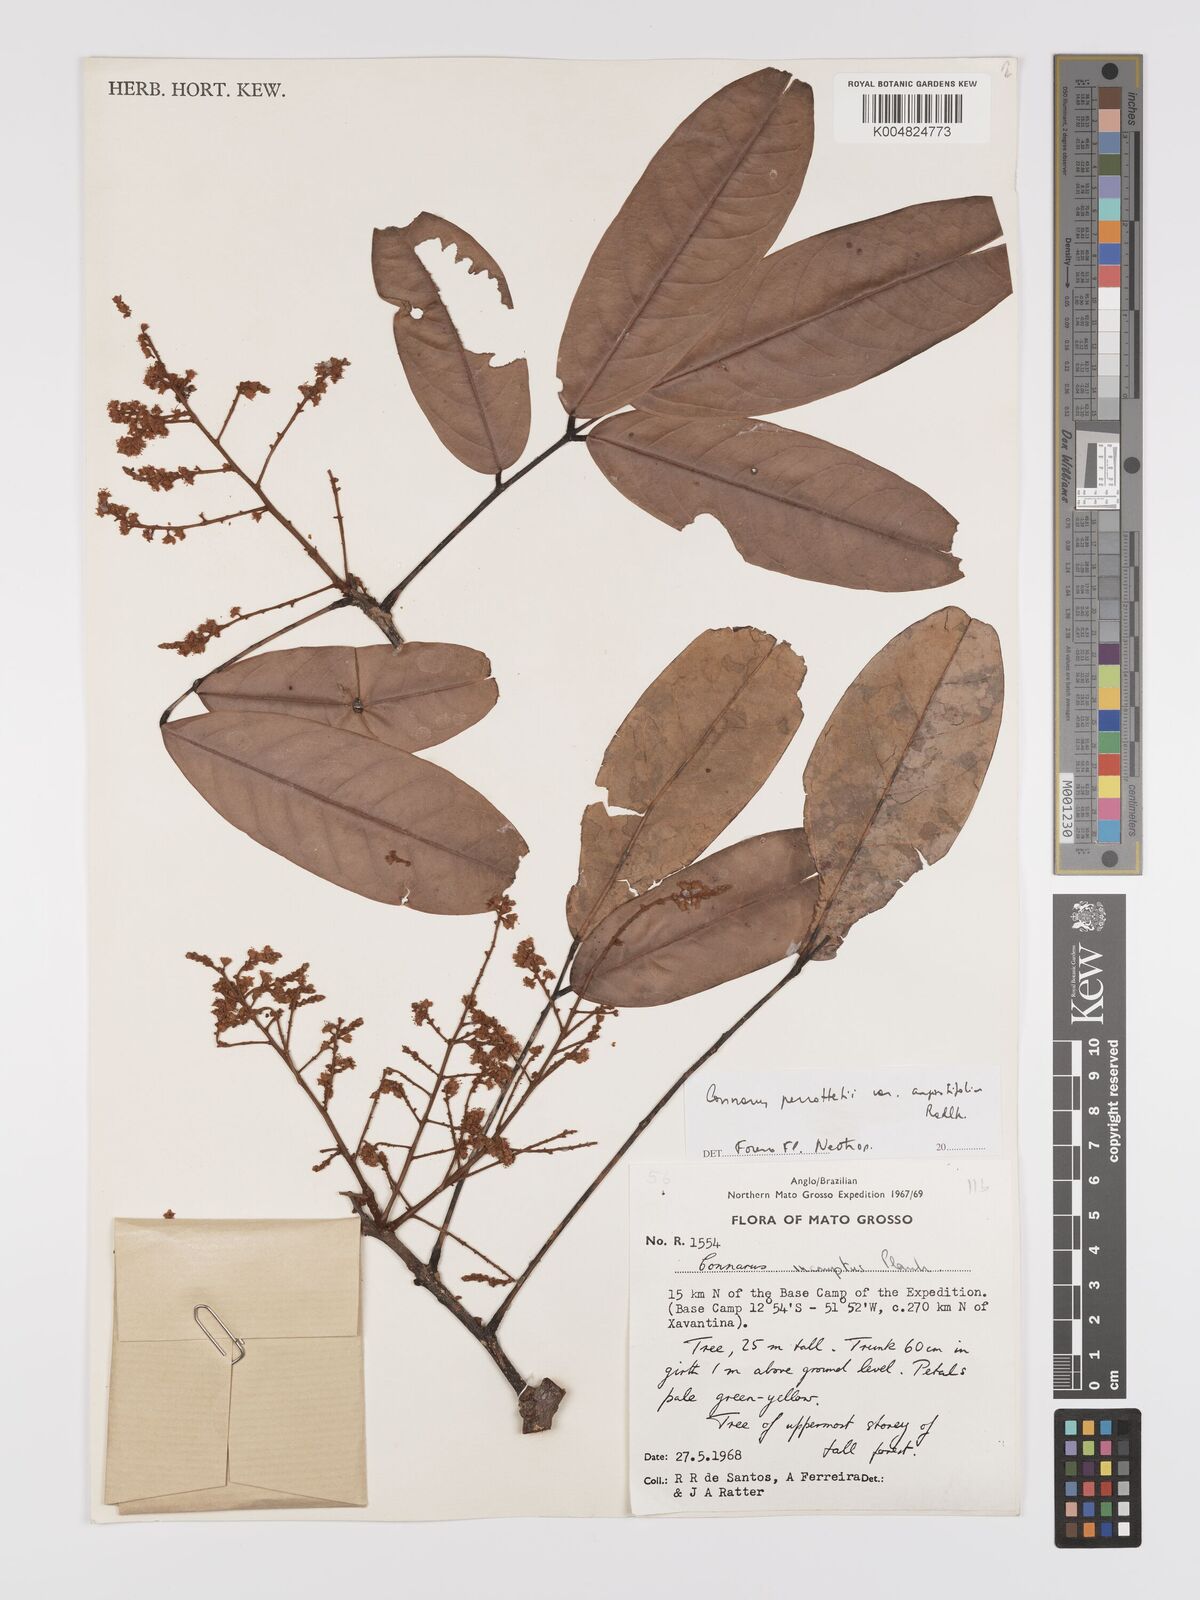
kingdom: Plantae
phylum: Tracheophyta
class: Magnoliopsida
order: Oxalidales
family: Connaraceae
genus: Connarus
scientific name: Connarus perrottetii
